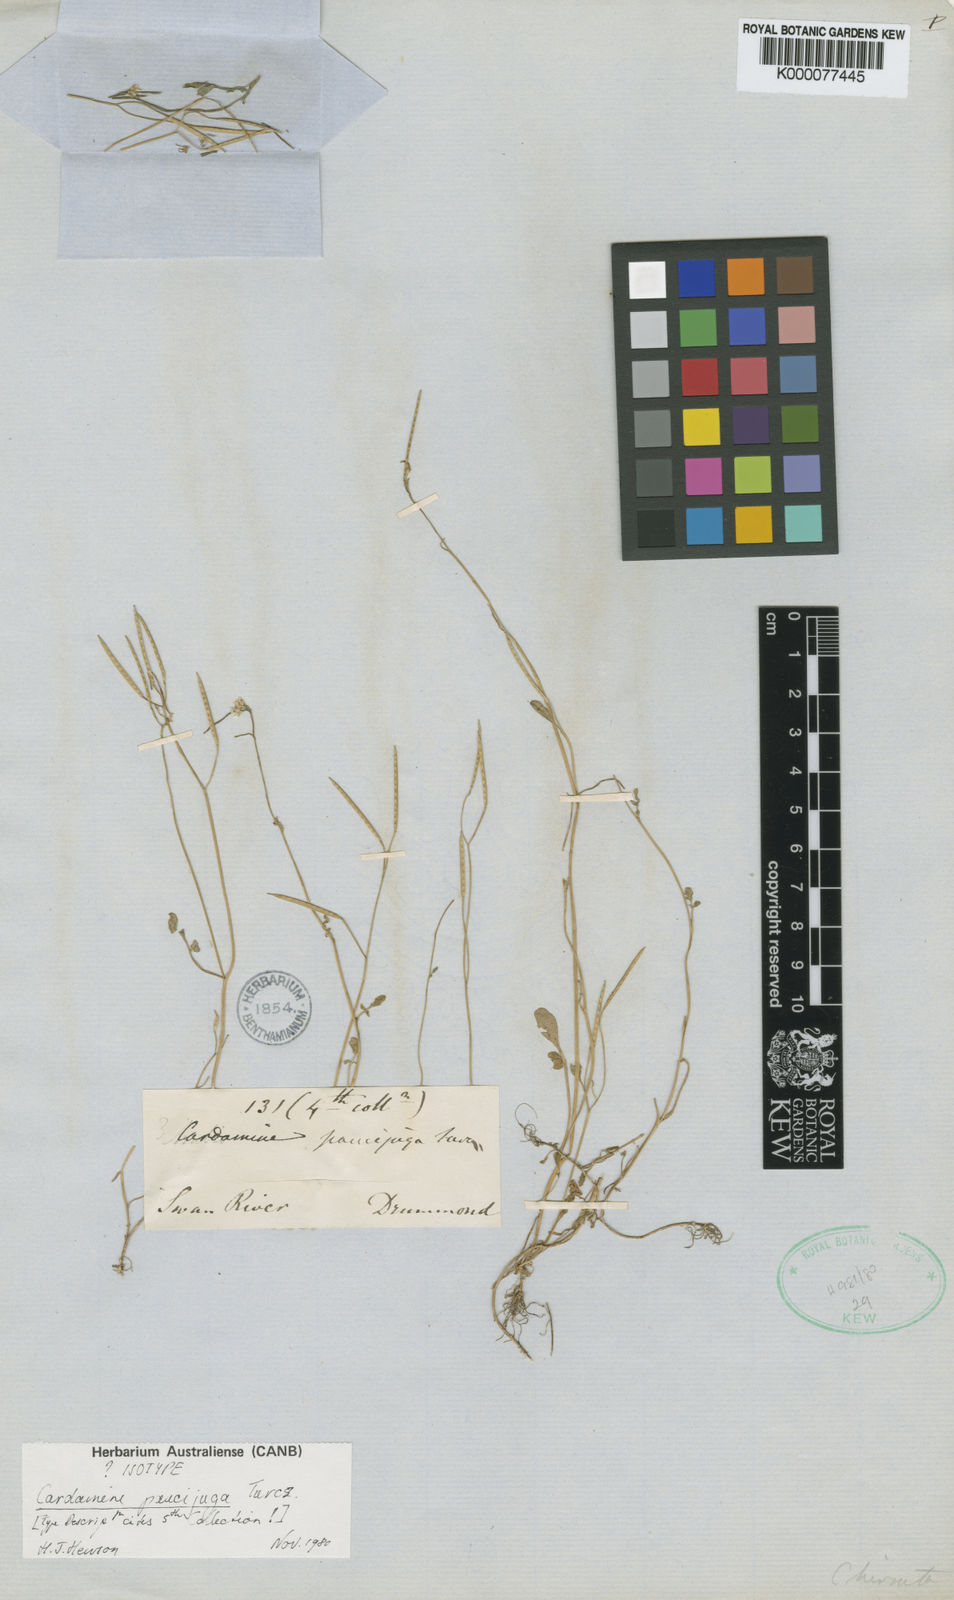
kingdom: Plantae
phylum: Tracheophyta
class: Magnoliopsida
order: Brassicales
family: Brassicaceae
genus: Cardamine
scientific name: Cardamine paucijuga
